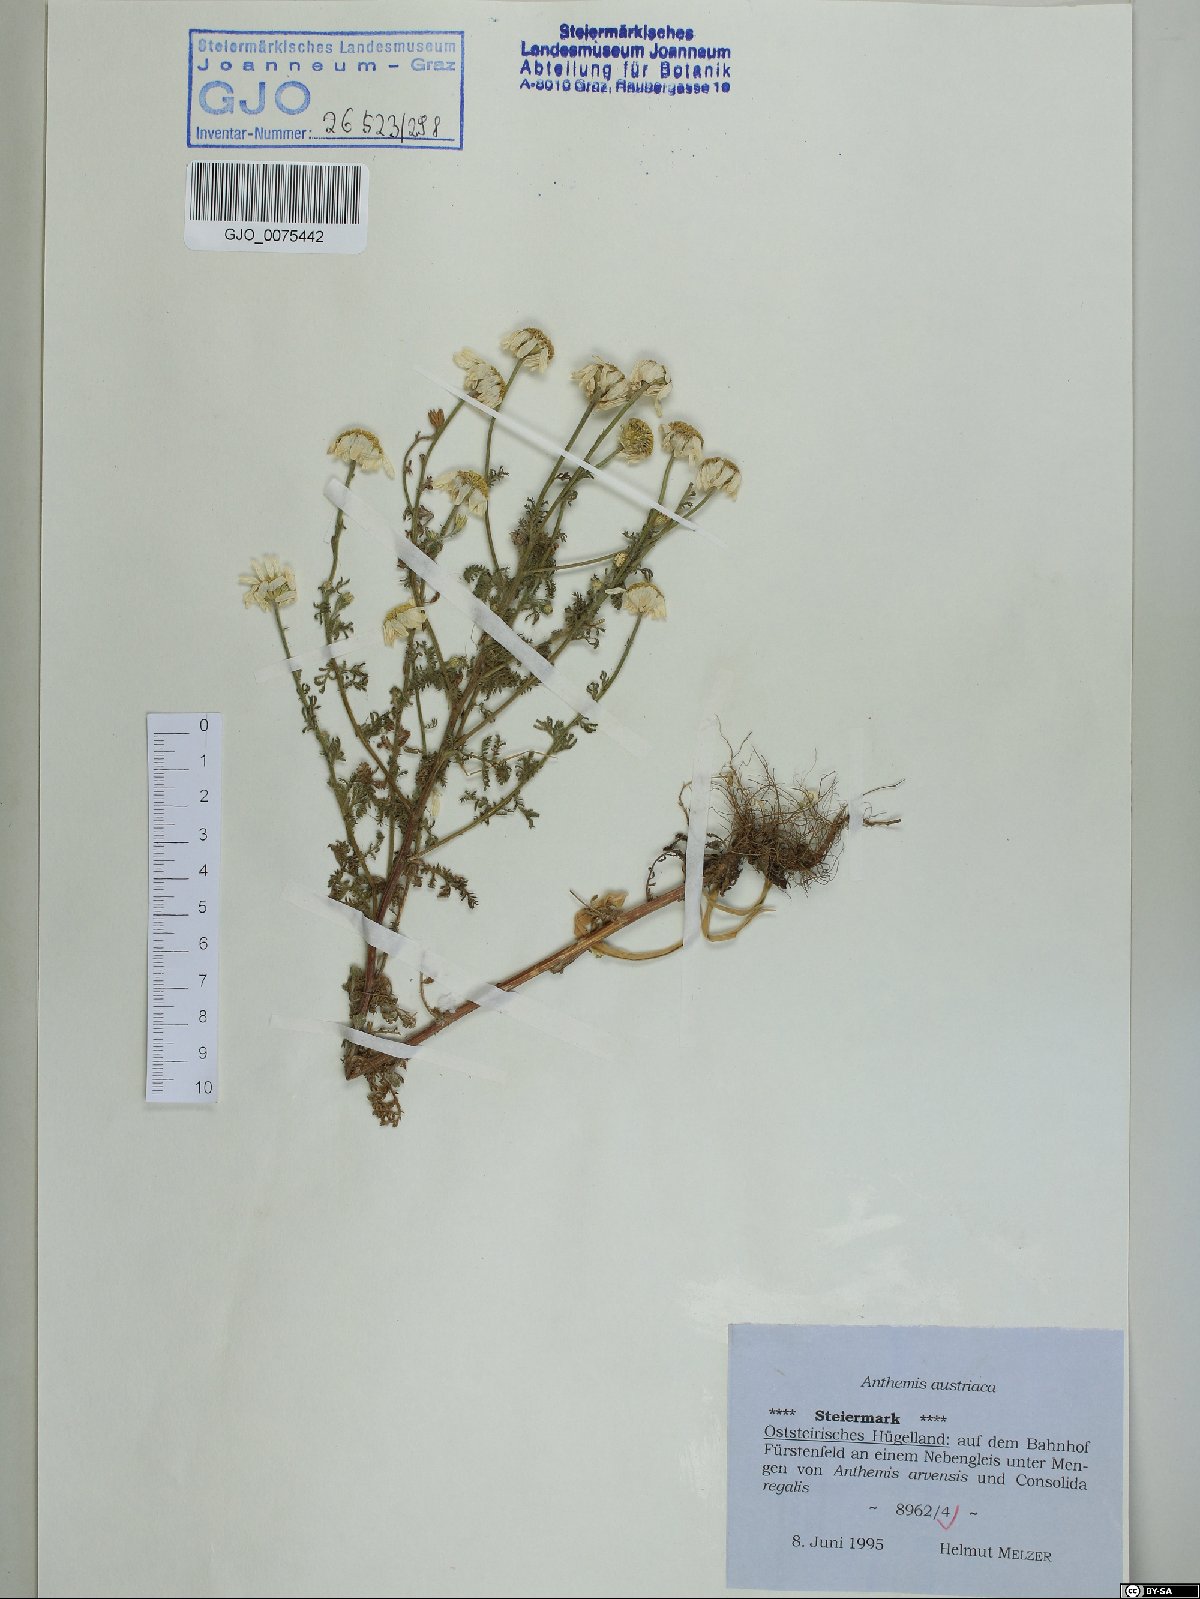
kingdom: Plantae
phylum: Tracheophyta
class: Magnoliopsida
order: Asterales
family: Asteraceae
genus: Cota
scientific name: Cota austriaca
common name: Austrian chamomile
